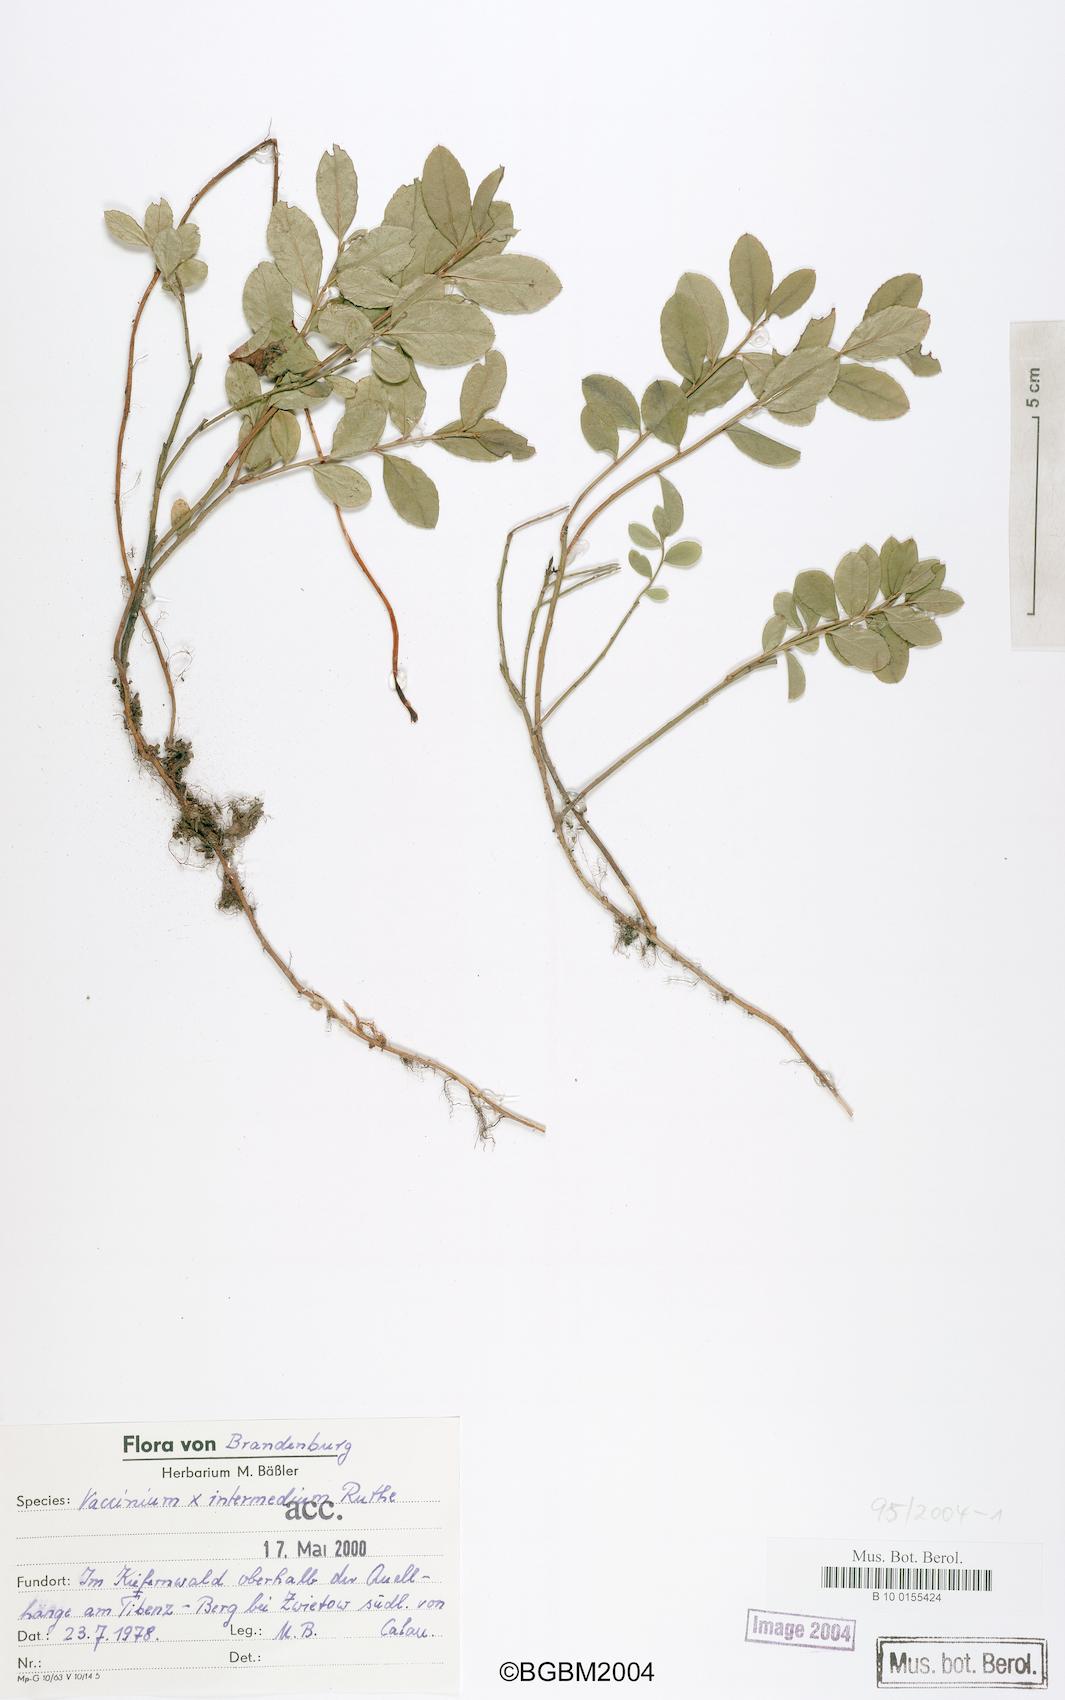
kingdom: Plantae
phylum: Tracheophyta
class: Magnoliopsida
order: Ericales
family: Ericaceae
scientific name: Ericaceae
